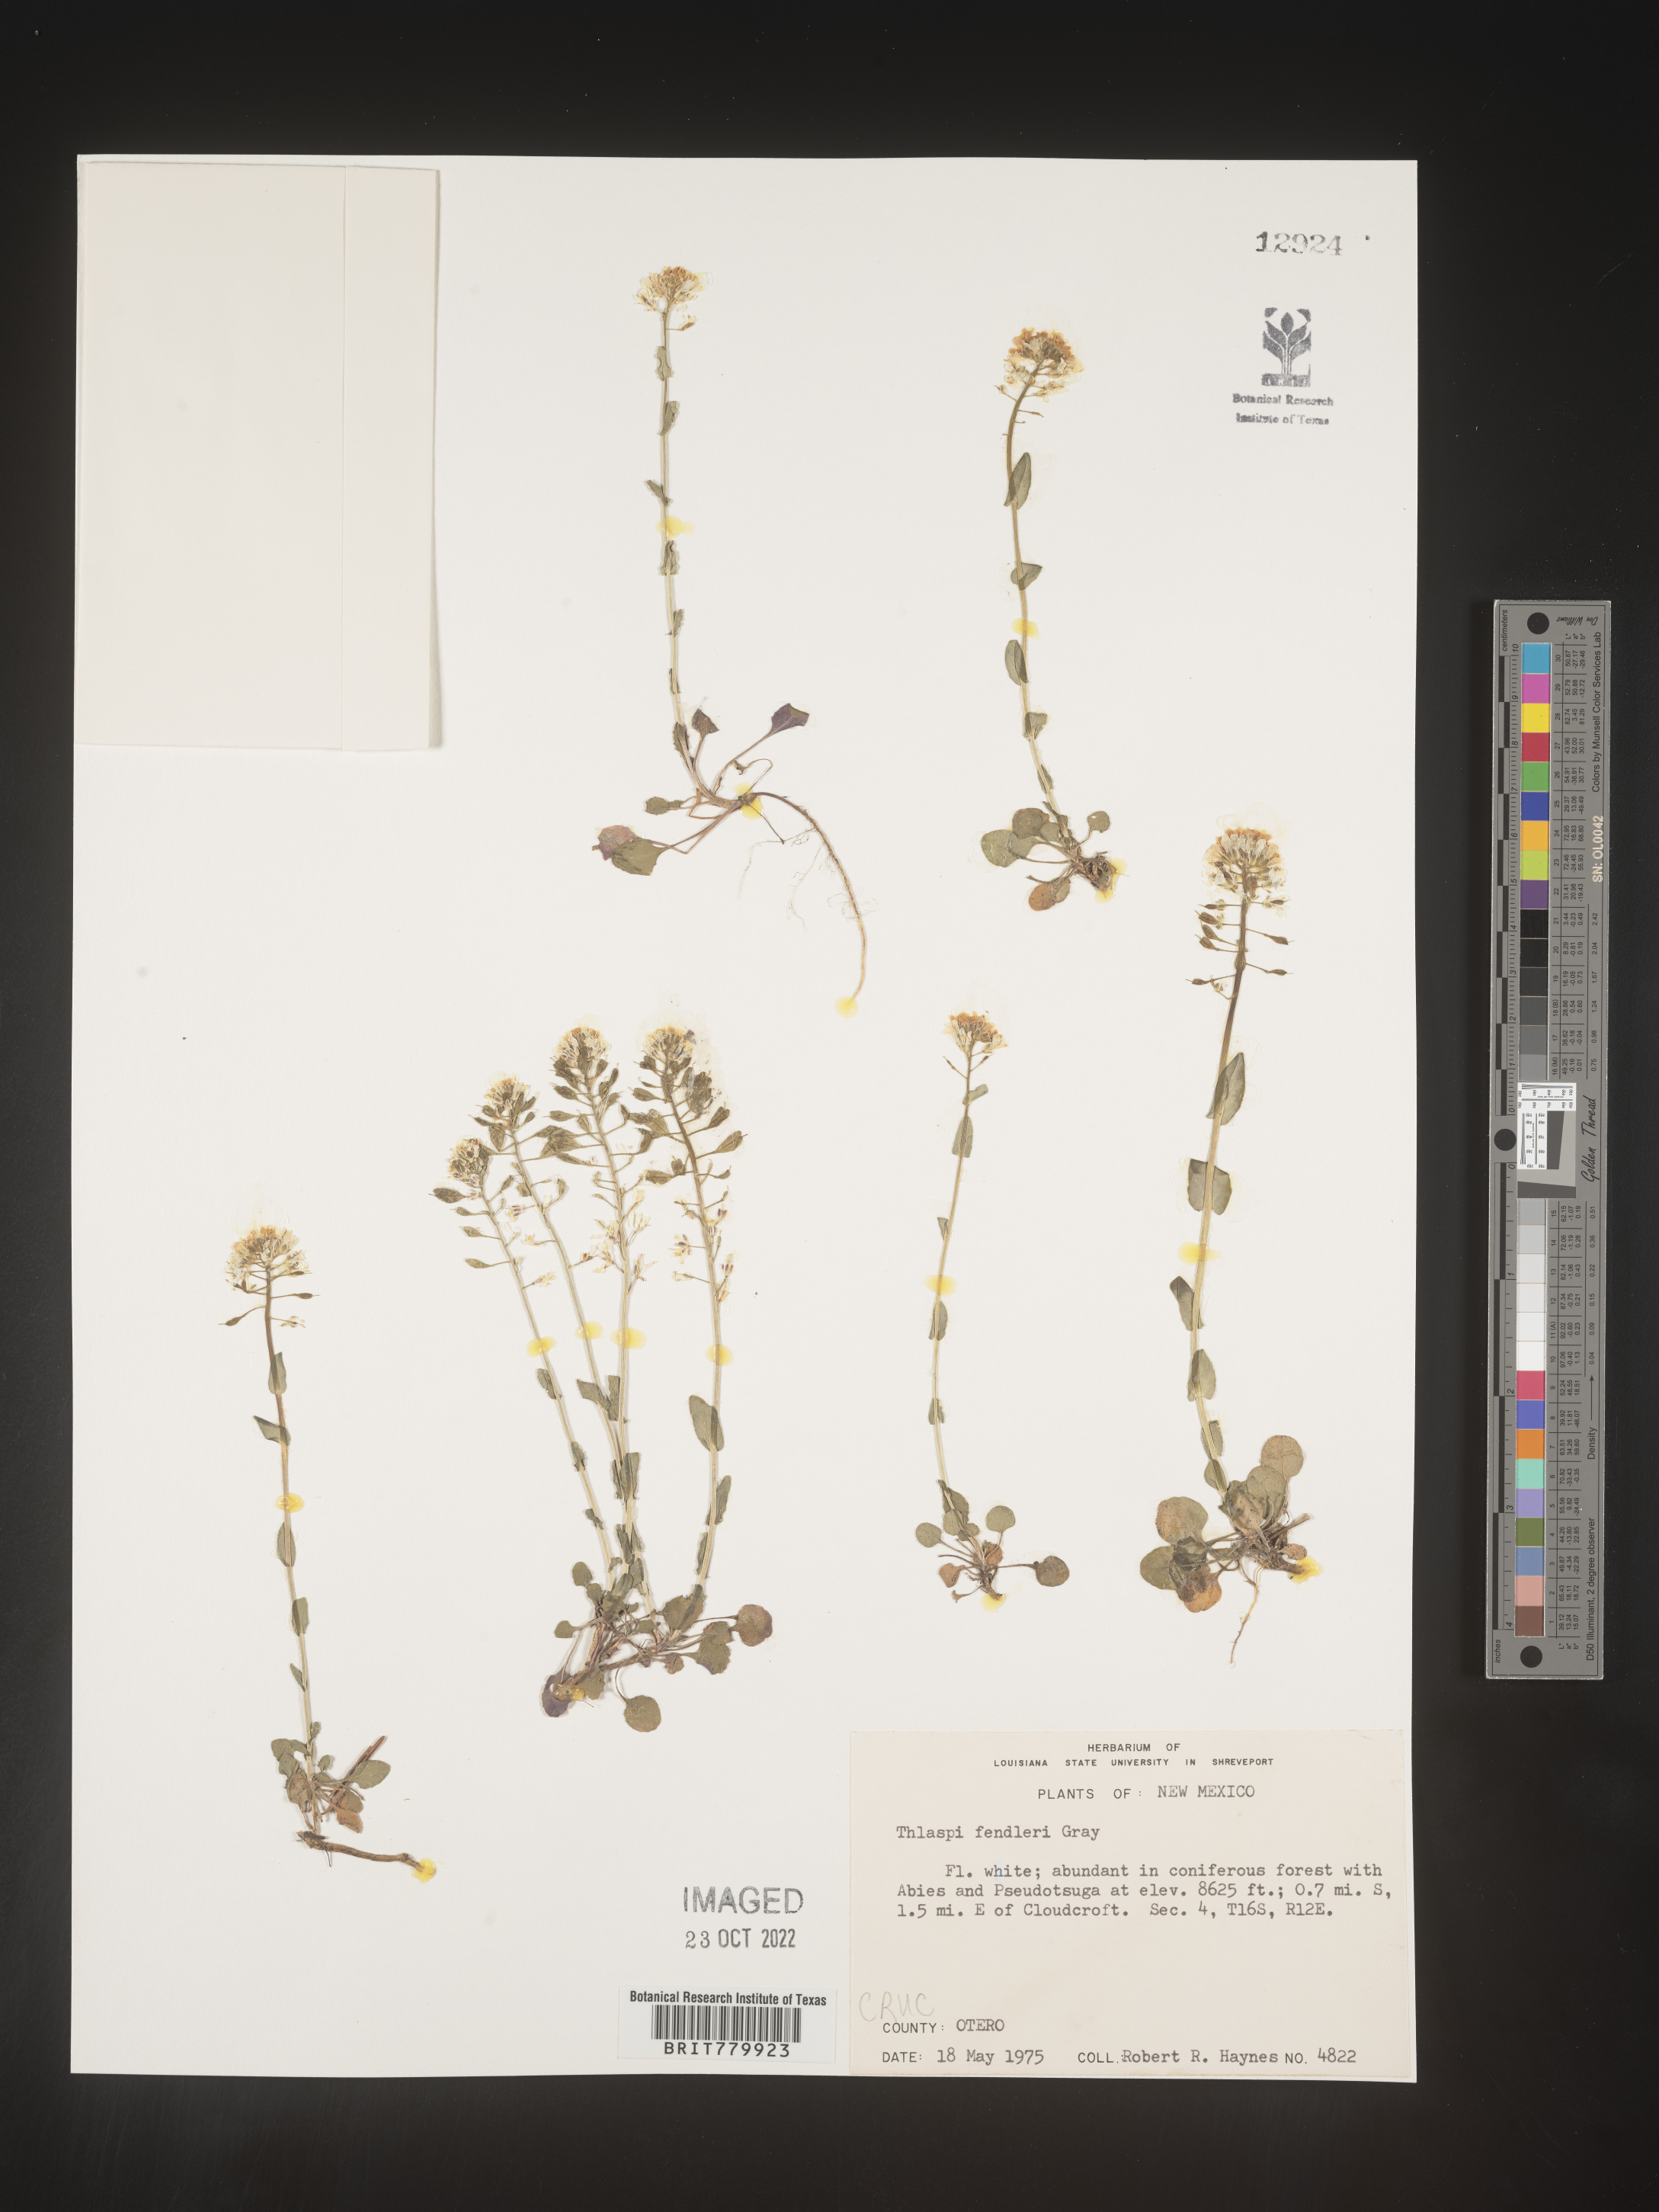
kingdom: Plantae
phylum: Tracheophyta
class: Magnoliopsida
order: Brassicales
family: Brassicaceae
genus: Thlaspi
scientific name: Thlaspi
